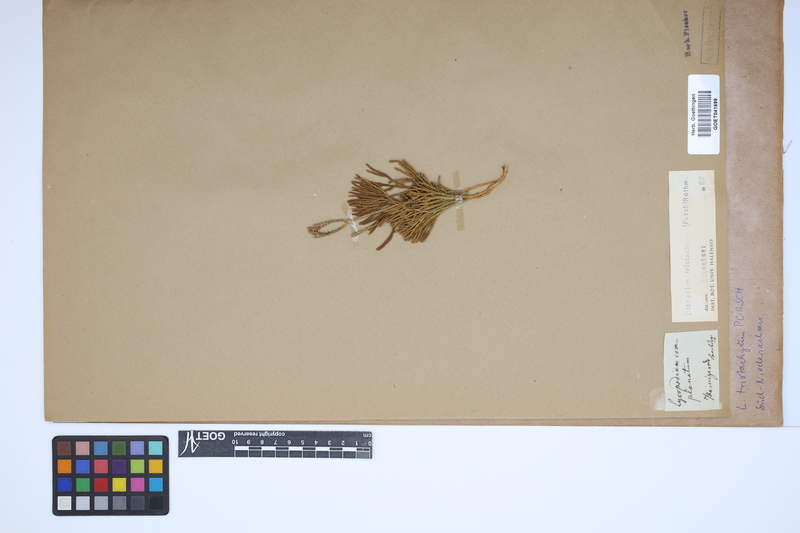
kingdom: Plantae
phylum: Tracheophyta
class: Lycopodiopsida
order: Lycopodiales
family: Lycopodiaceae
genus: Diphasiastrum
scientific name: Diphasiastrum tristachyum
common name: Blue ground-cedar
